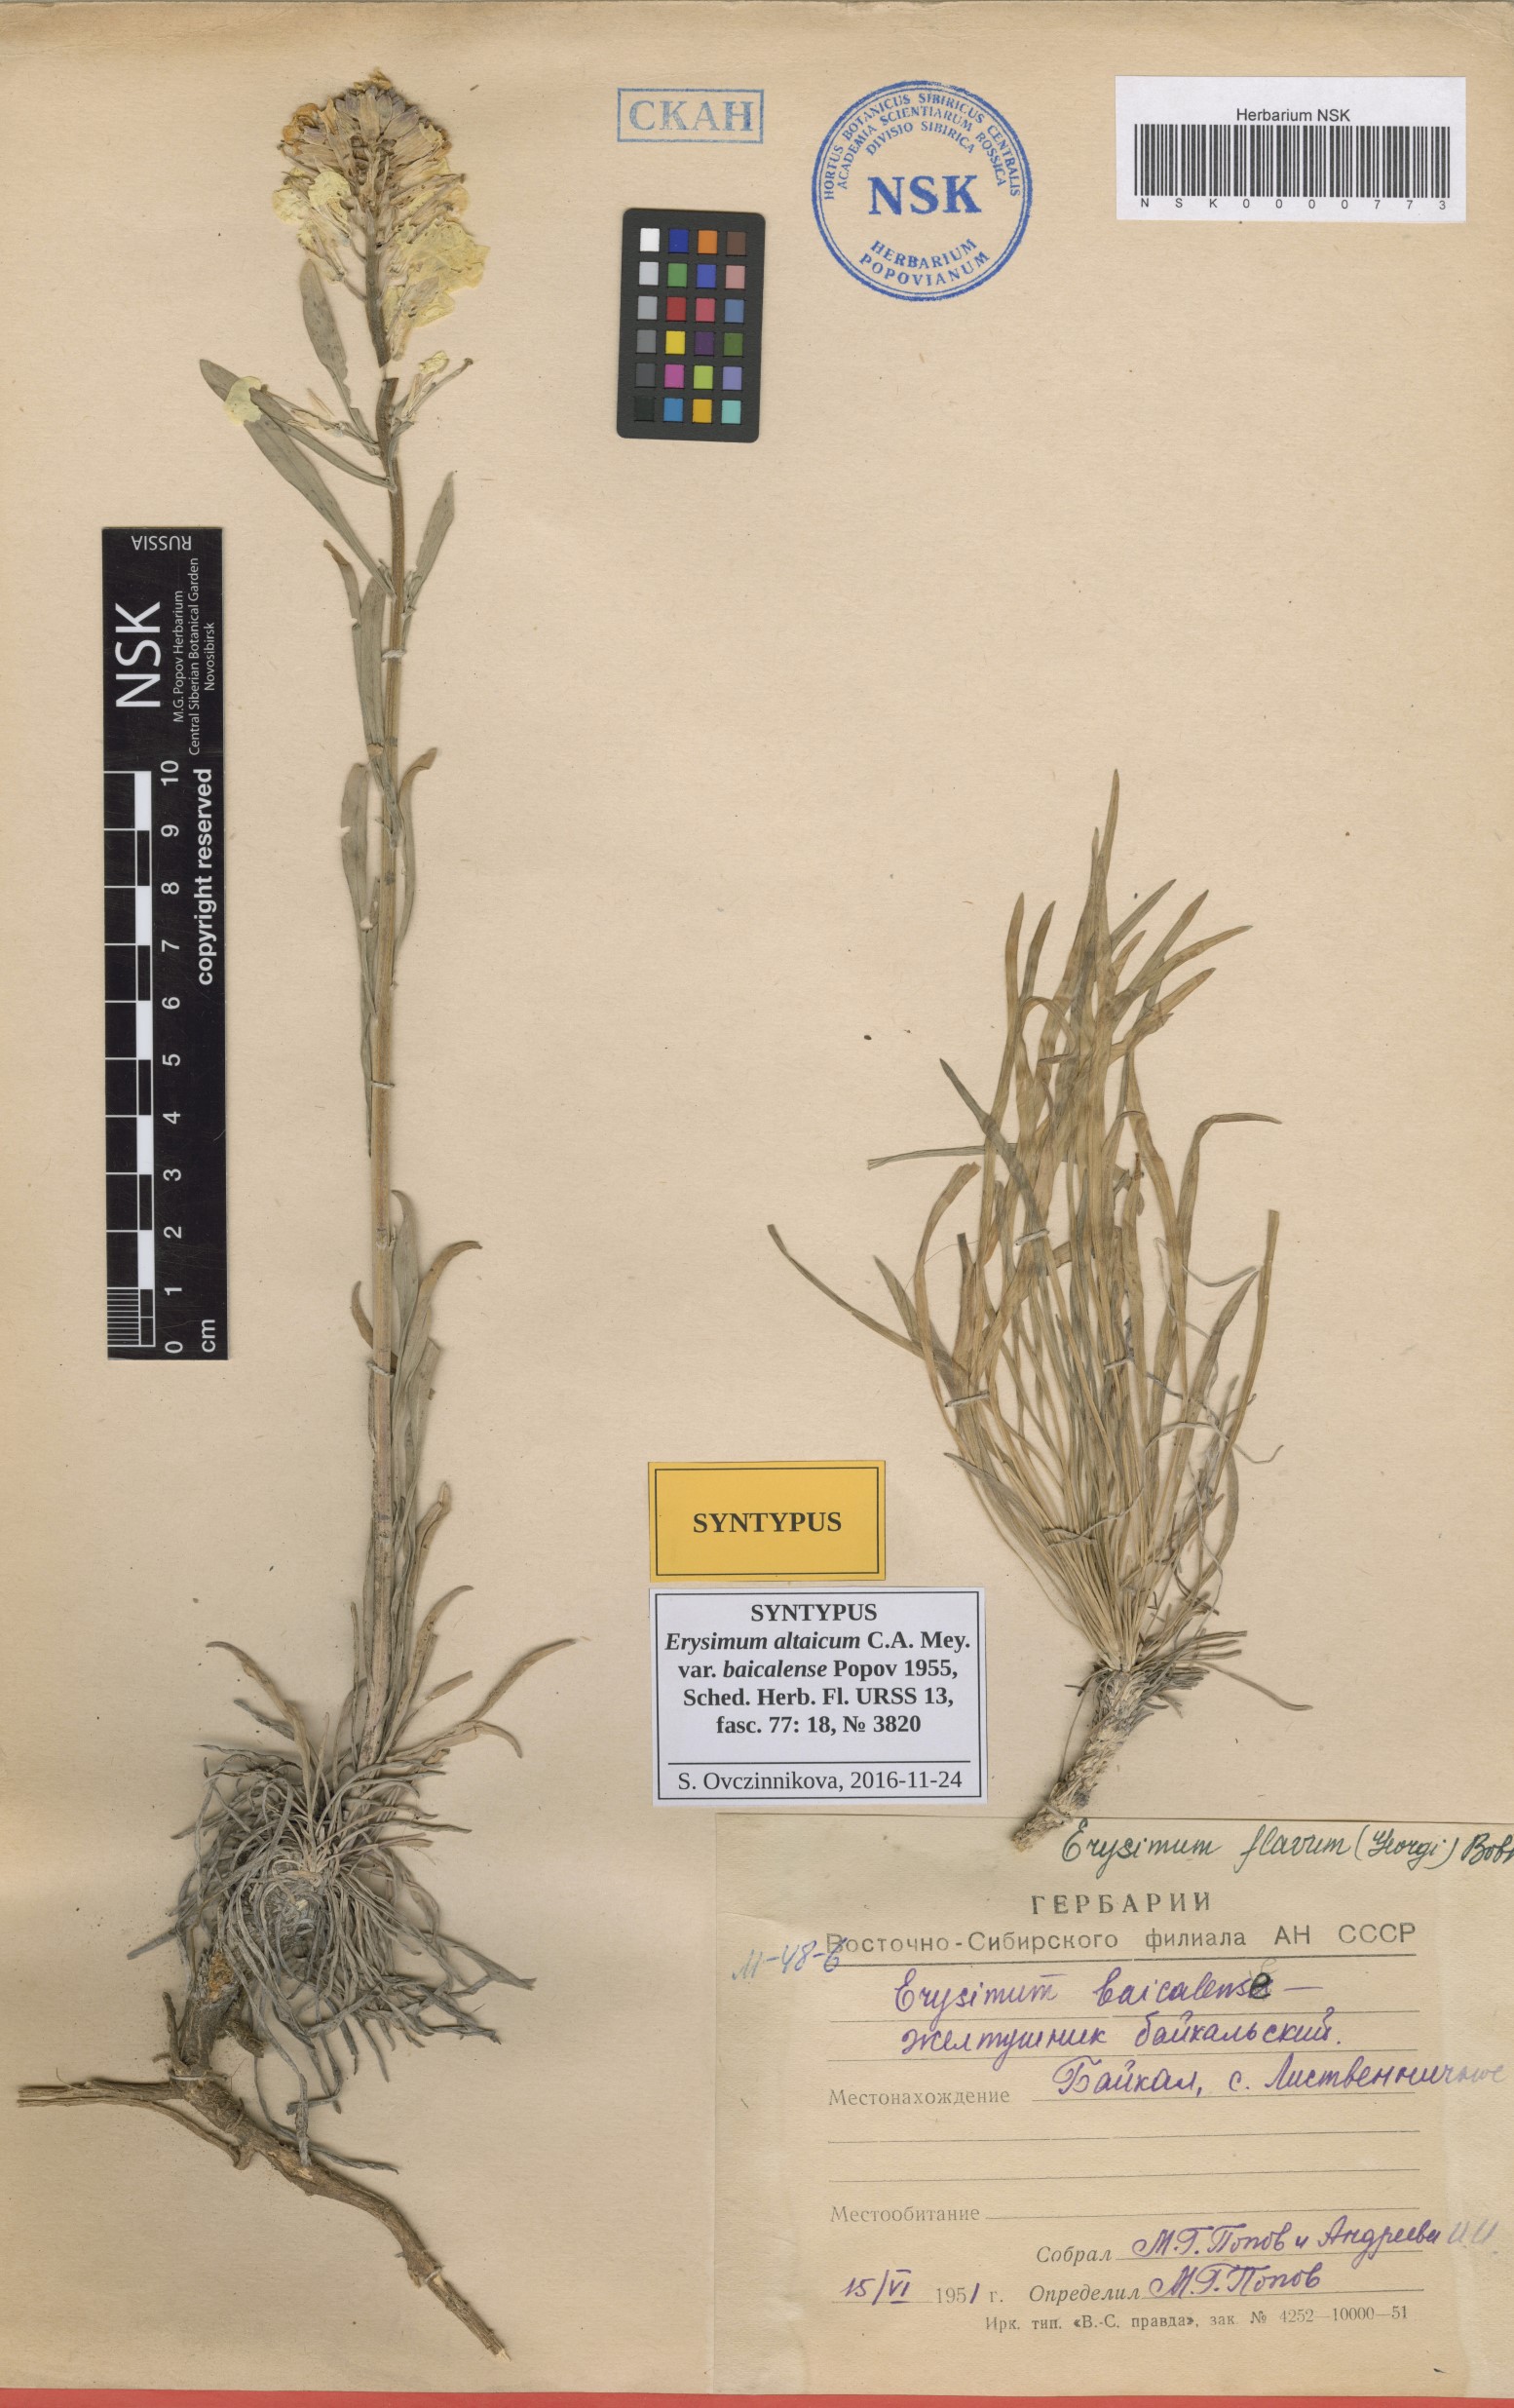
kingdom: Plantae
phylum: Tracheophyta
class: Magnoliopsida
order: Brassicales
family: Brassicaceae
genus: Erysimum
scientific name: Erysimum flavum
